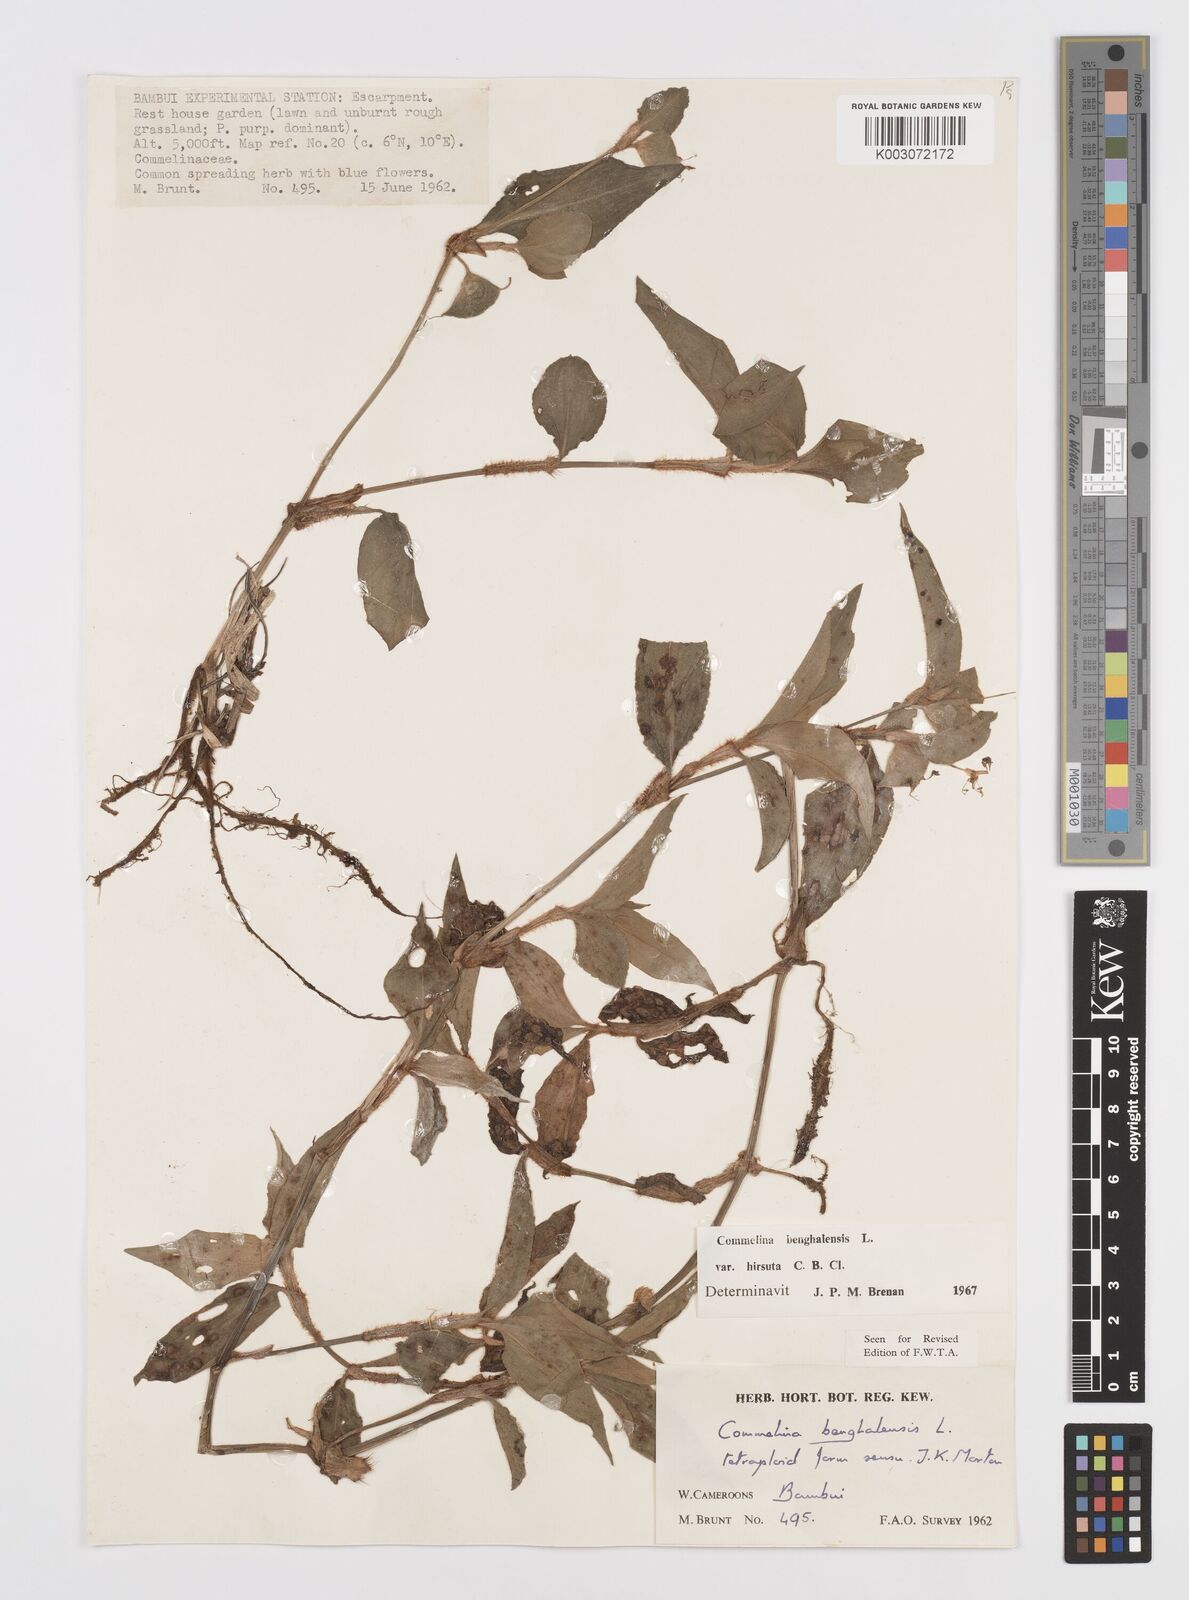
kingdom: Plantae
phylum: Tracheophyta
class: Liliopsida
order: Commelinales
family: Commelinaceae
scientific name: Commelinaceae
